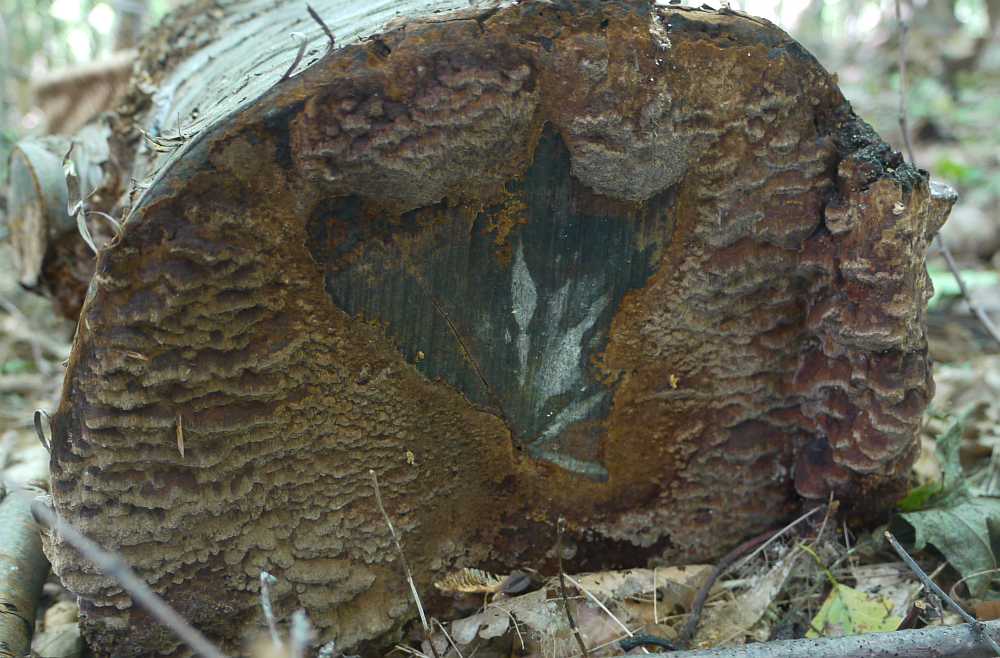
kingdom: Fungi
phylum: Basidiomycota
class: Agaricomycetes
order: Hymenochaetales
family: Hymenochaetaceae
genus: Fuscoporia
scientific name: Fuscoporia ferrea
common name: skorpe-ildporesvamp
